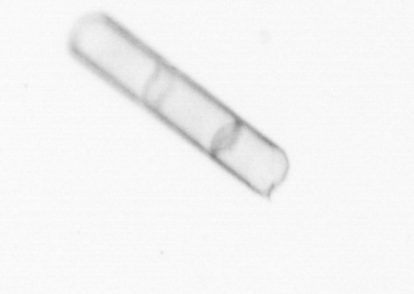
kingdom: Chromista
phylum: Ochrophyta
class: Bacillariophyceae
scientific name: Bacillariophyceae
